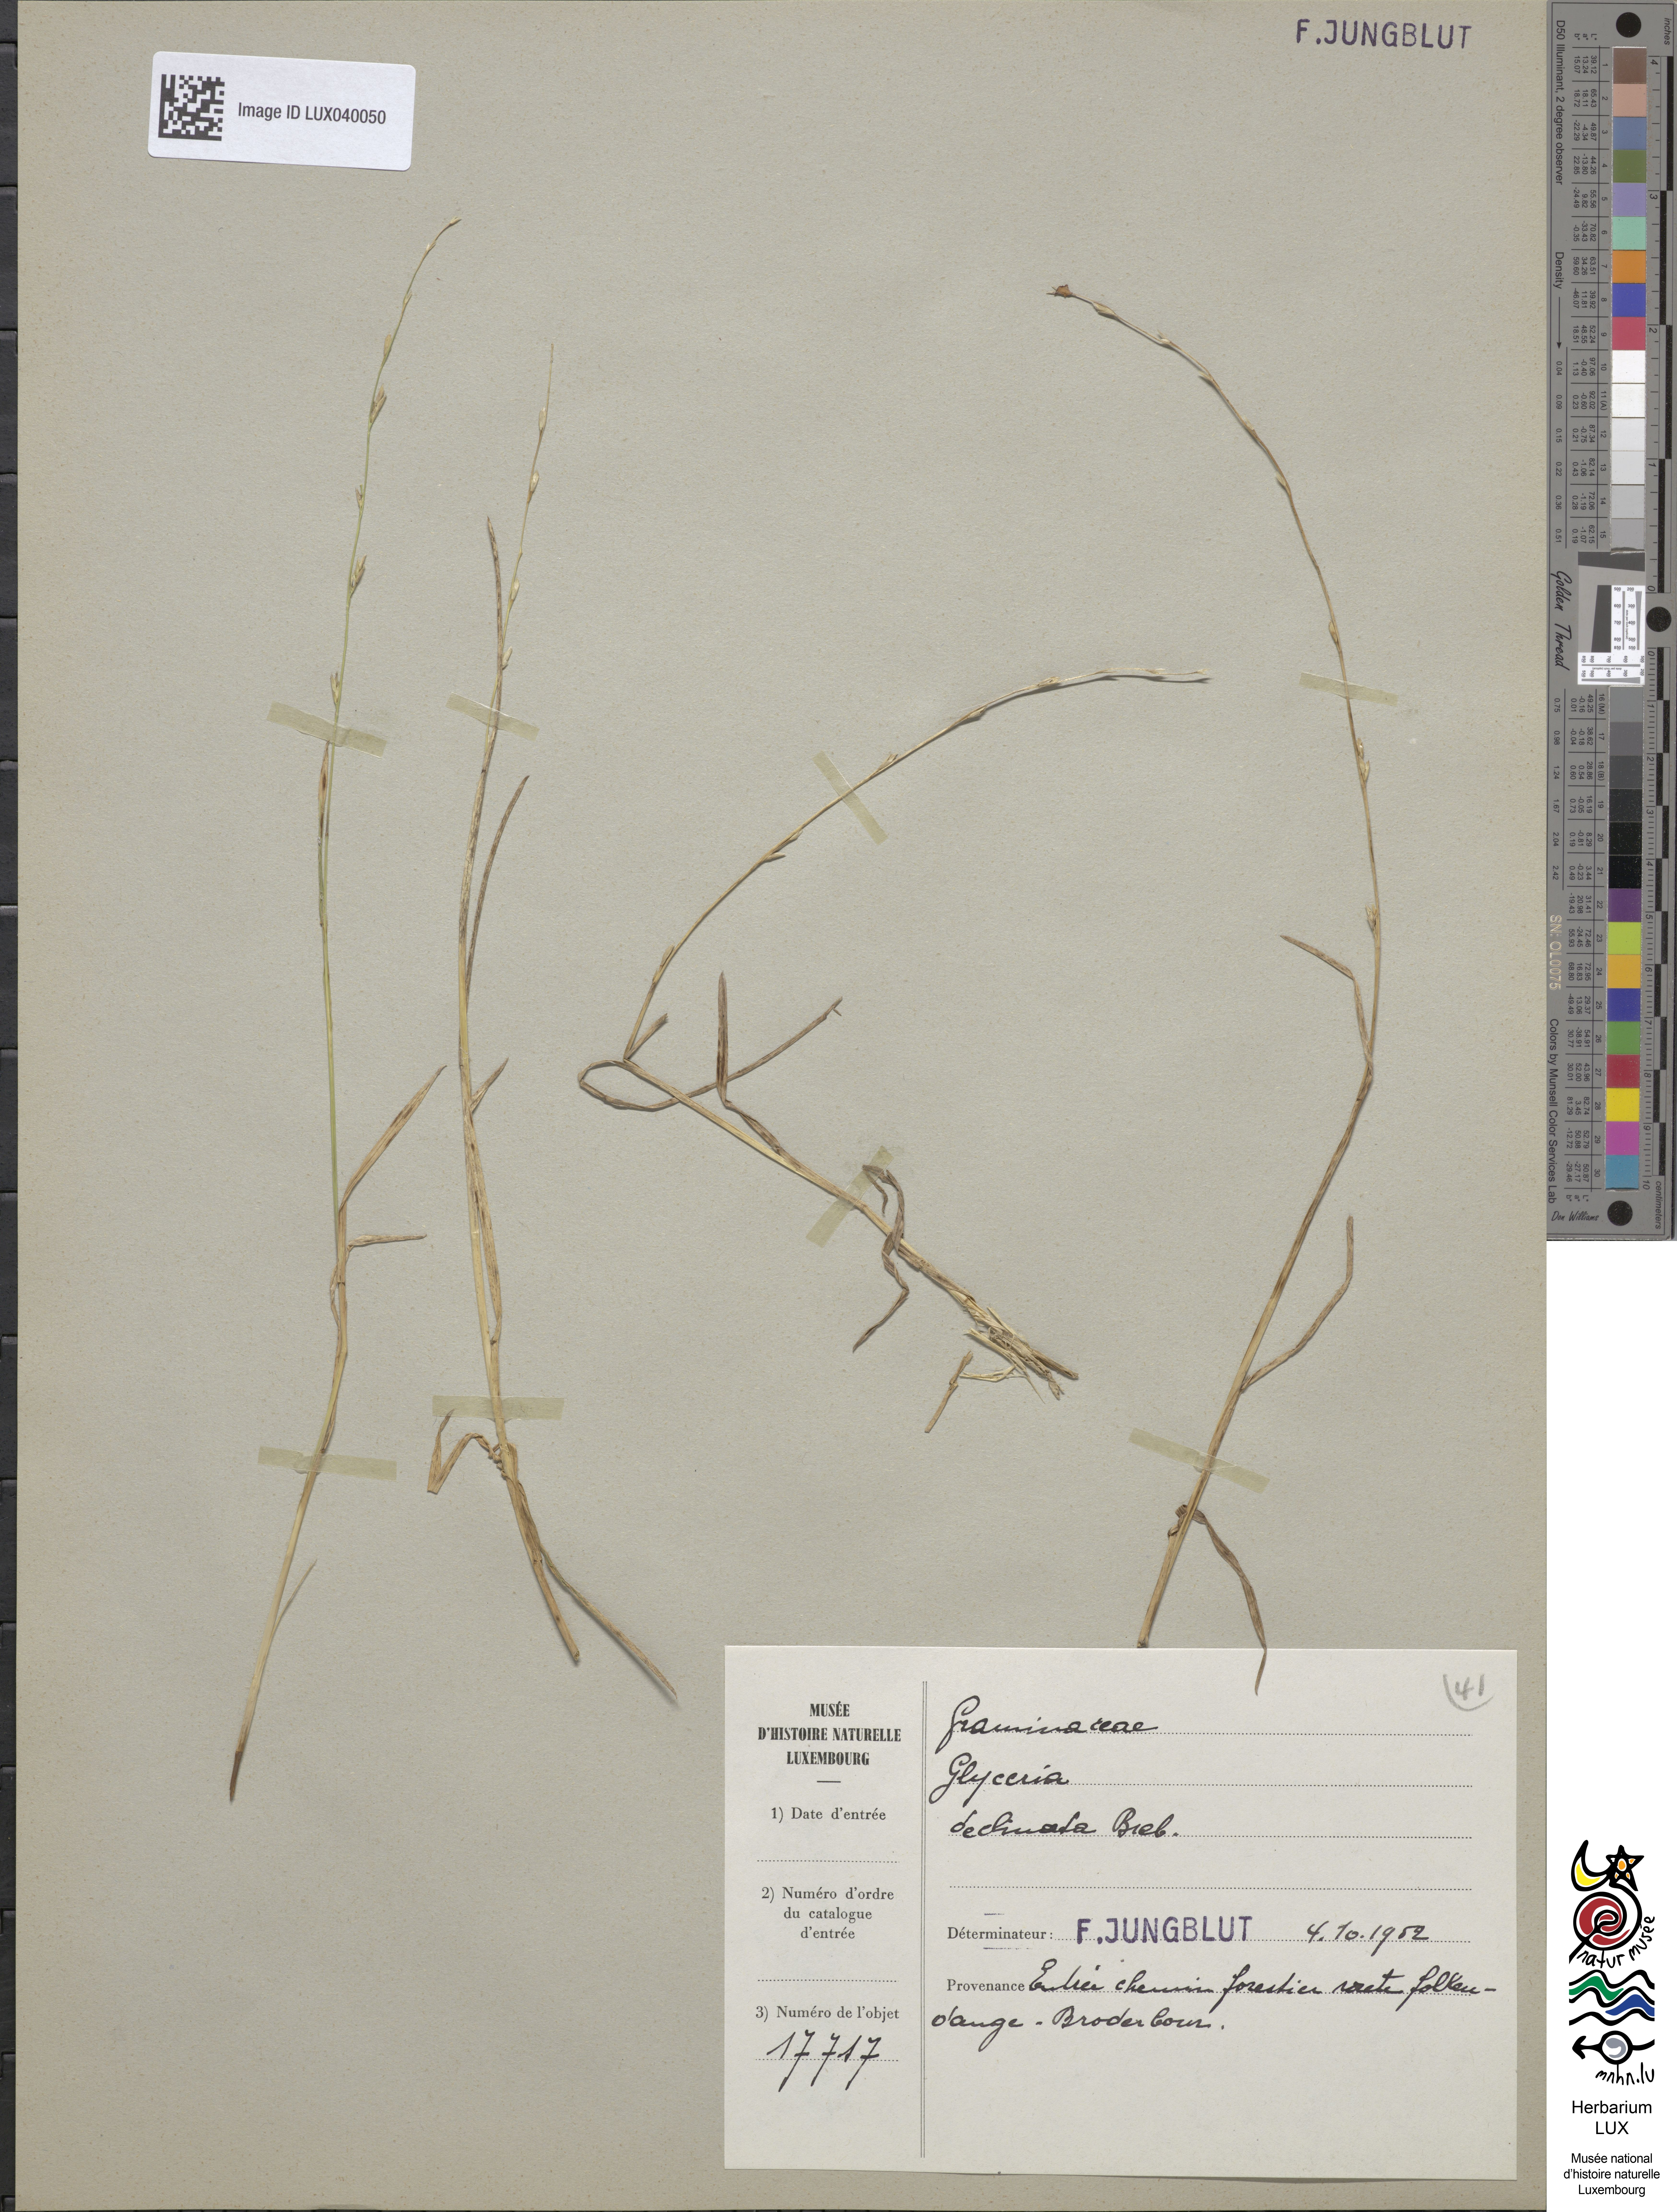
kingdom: Plantae
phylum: Tracheophyta
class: Liliopsida
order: Poales
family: Poaceae
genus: Glyceria
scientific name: Glyceria declinata
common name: Small sweet-grass
